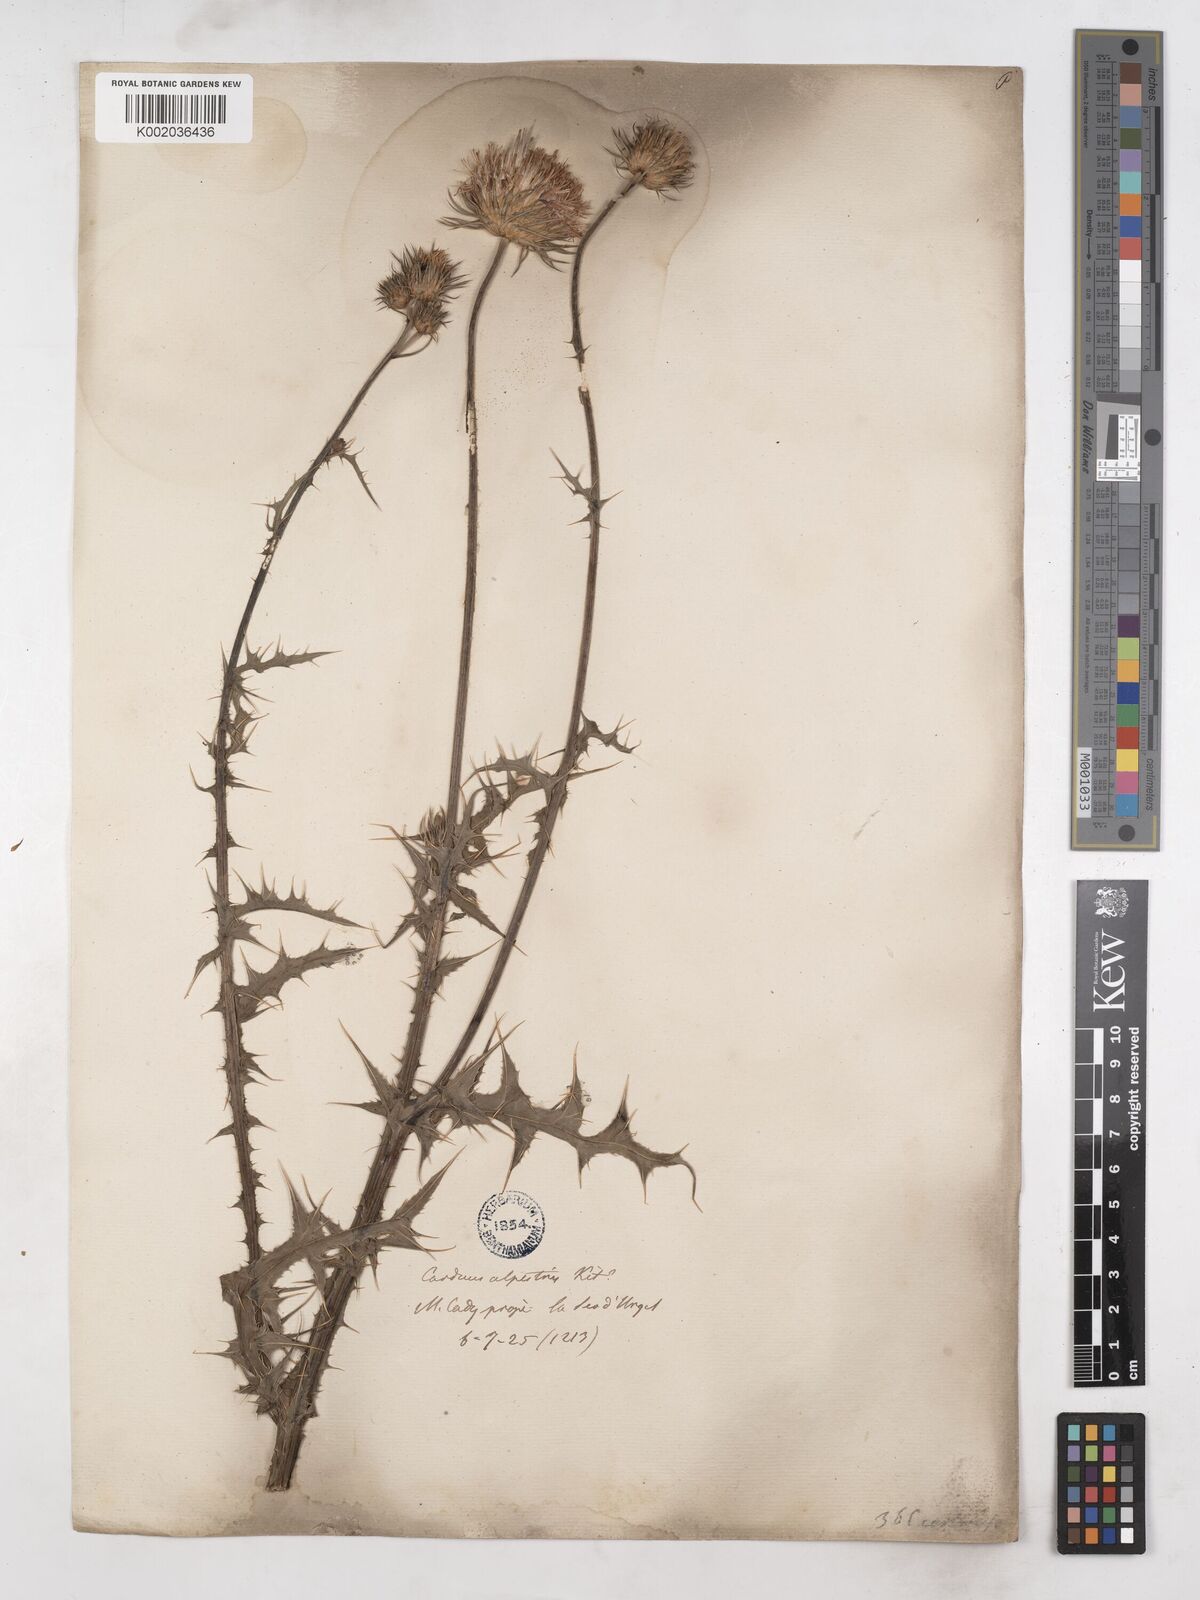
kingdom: Plantae
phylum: Tracheophyta
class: Magnoliopsida
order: Asterales
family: Asteraceae
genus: Carduus
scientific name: Carduus carlinifolius
